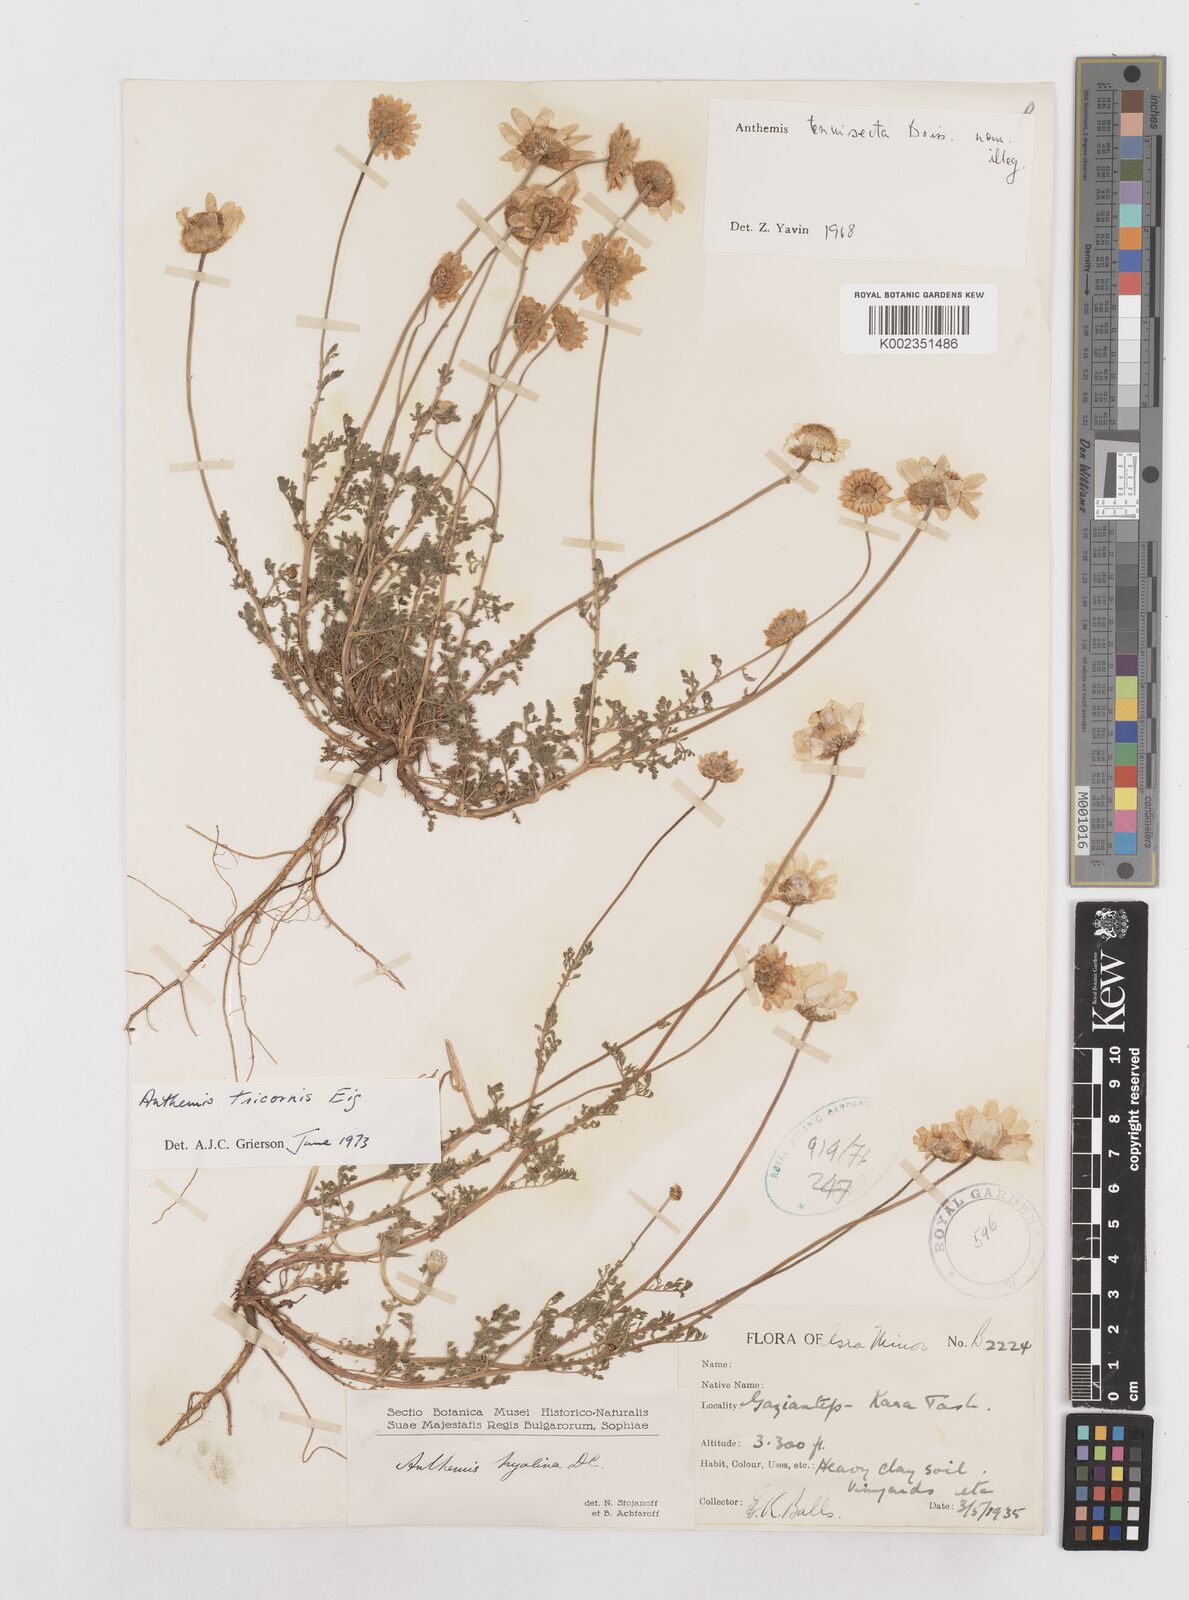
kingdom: Plantae
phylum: Tracheophyta
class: Magnoliopsida
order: Asterales
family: Asteraceae
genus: Anthemis
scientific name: Anthemis tricornis
